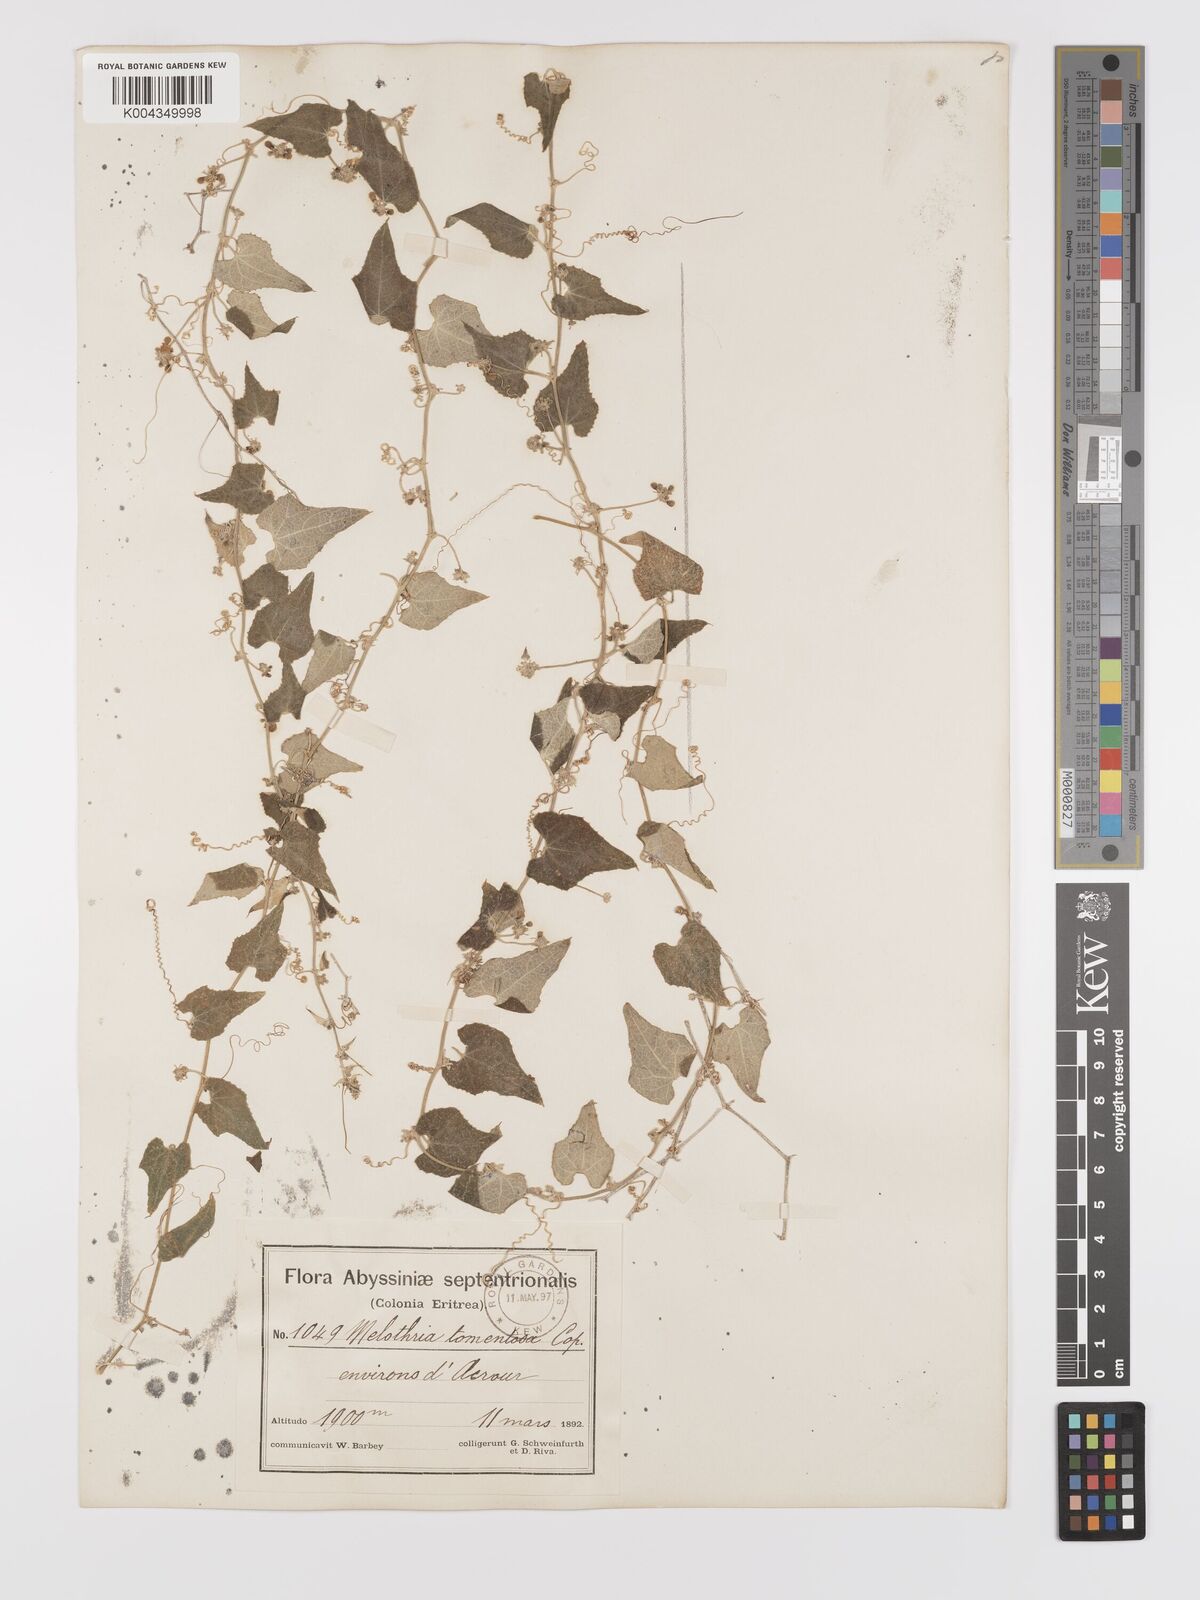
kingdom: Plantae
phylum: Tracheophyta
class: Magnoliopsida
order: Cucurbitales
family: Cucurbitaceae
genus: Zehneria
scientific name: Zehneria scabra
